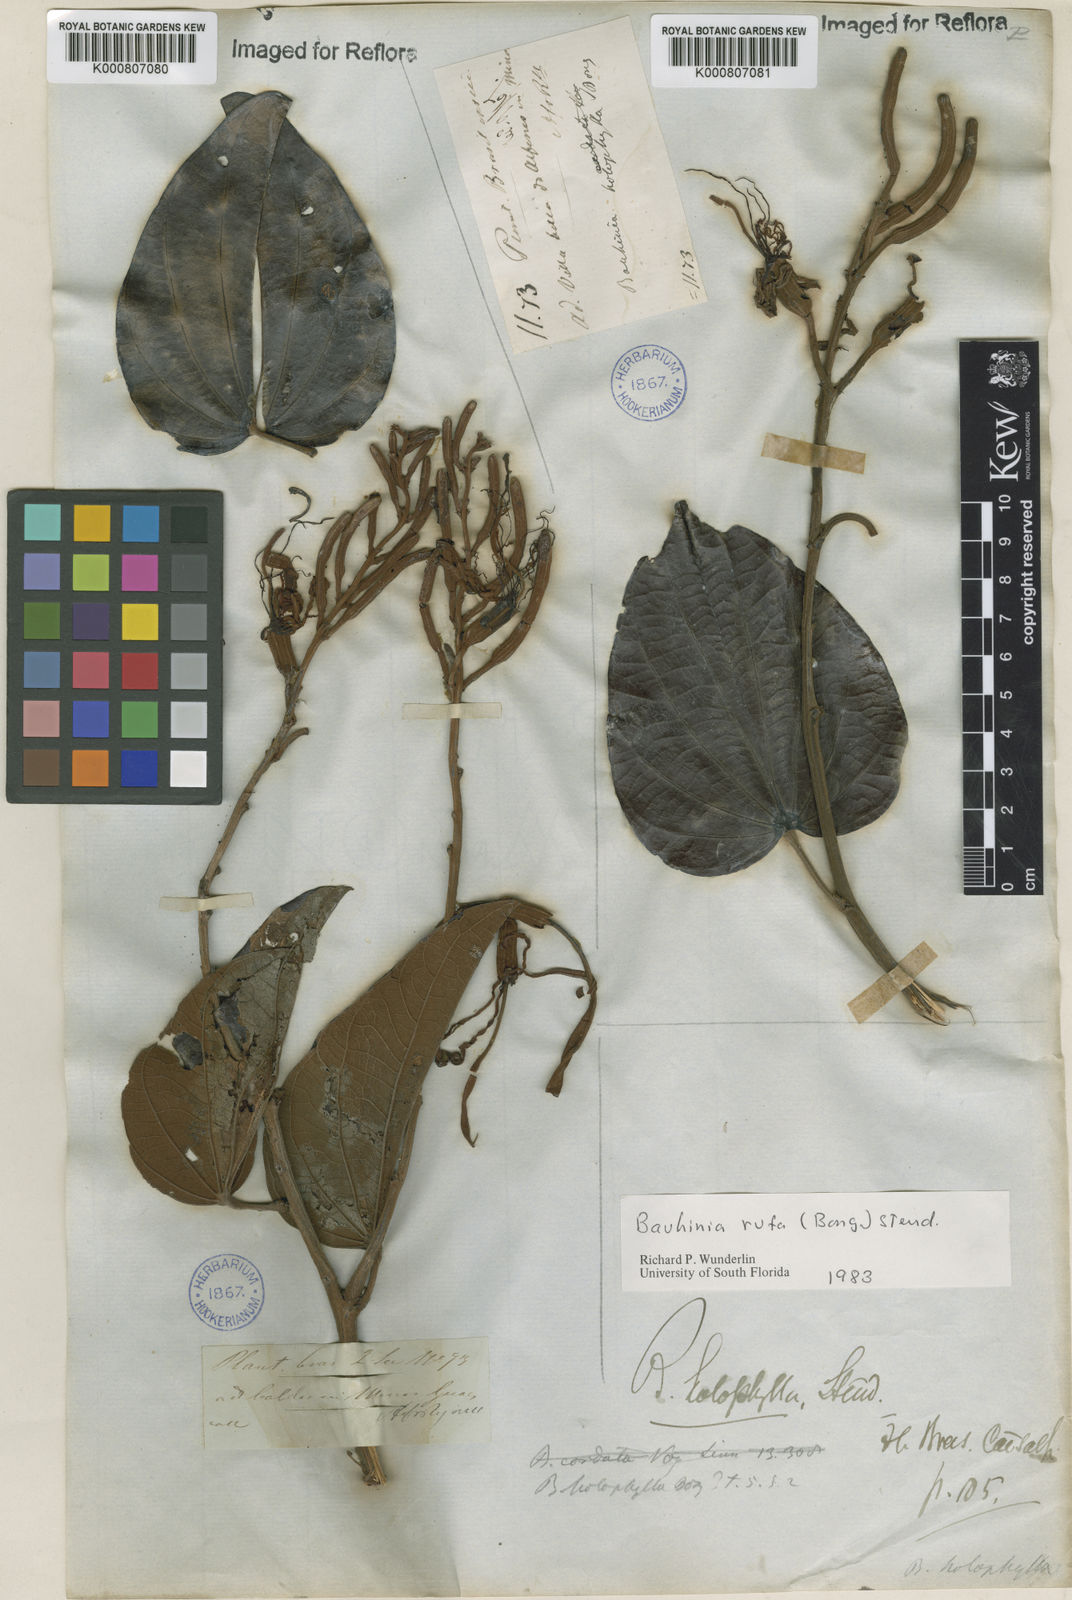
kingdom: Plantae
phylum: Tracheophyta
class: Magnoliopsida
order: Fabales
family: Fabaceae
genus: Bauhinia
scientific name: Bauhinia rufa
